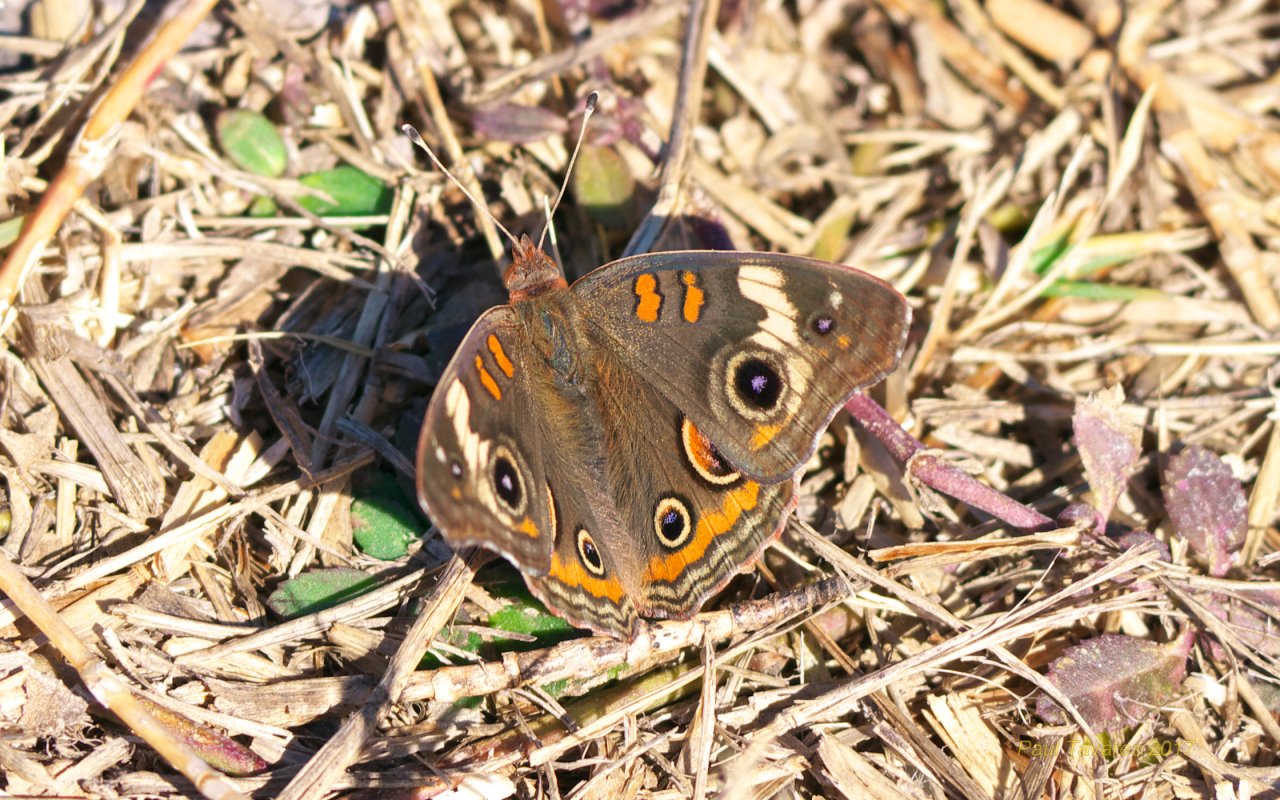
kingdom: Animalia
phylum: Arthropoda
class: Insecta
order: Lepidoptera
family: Nymphalidae
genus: Junonia
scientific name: Junonia evarete
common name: Mangrove Buckeye
